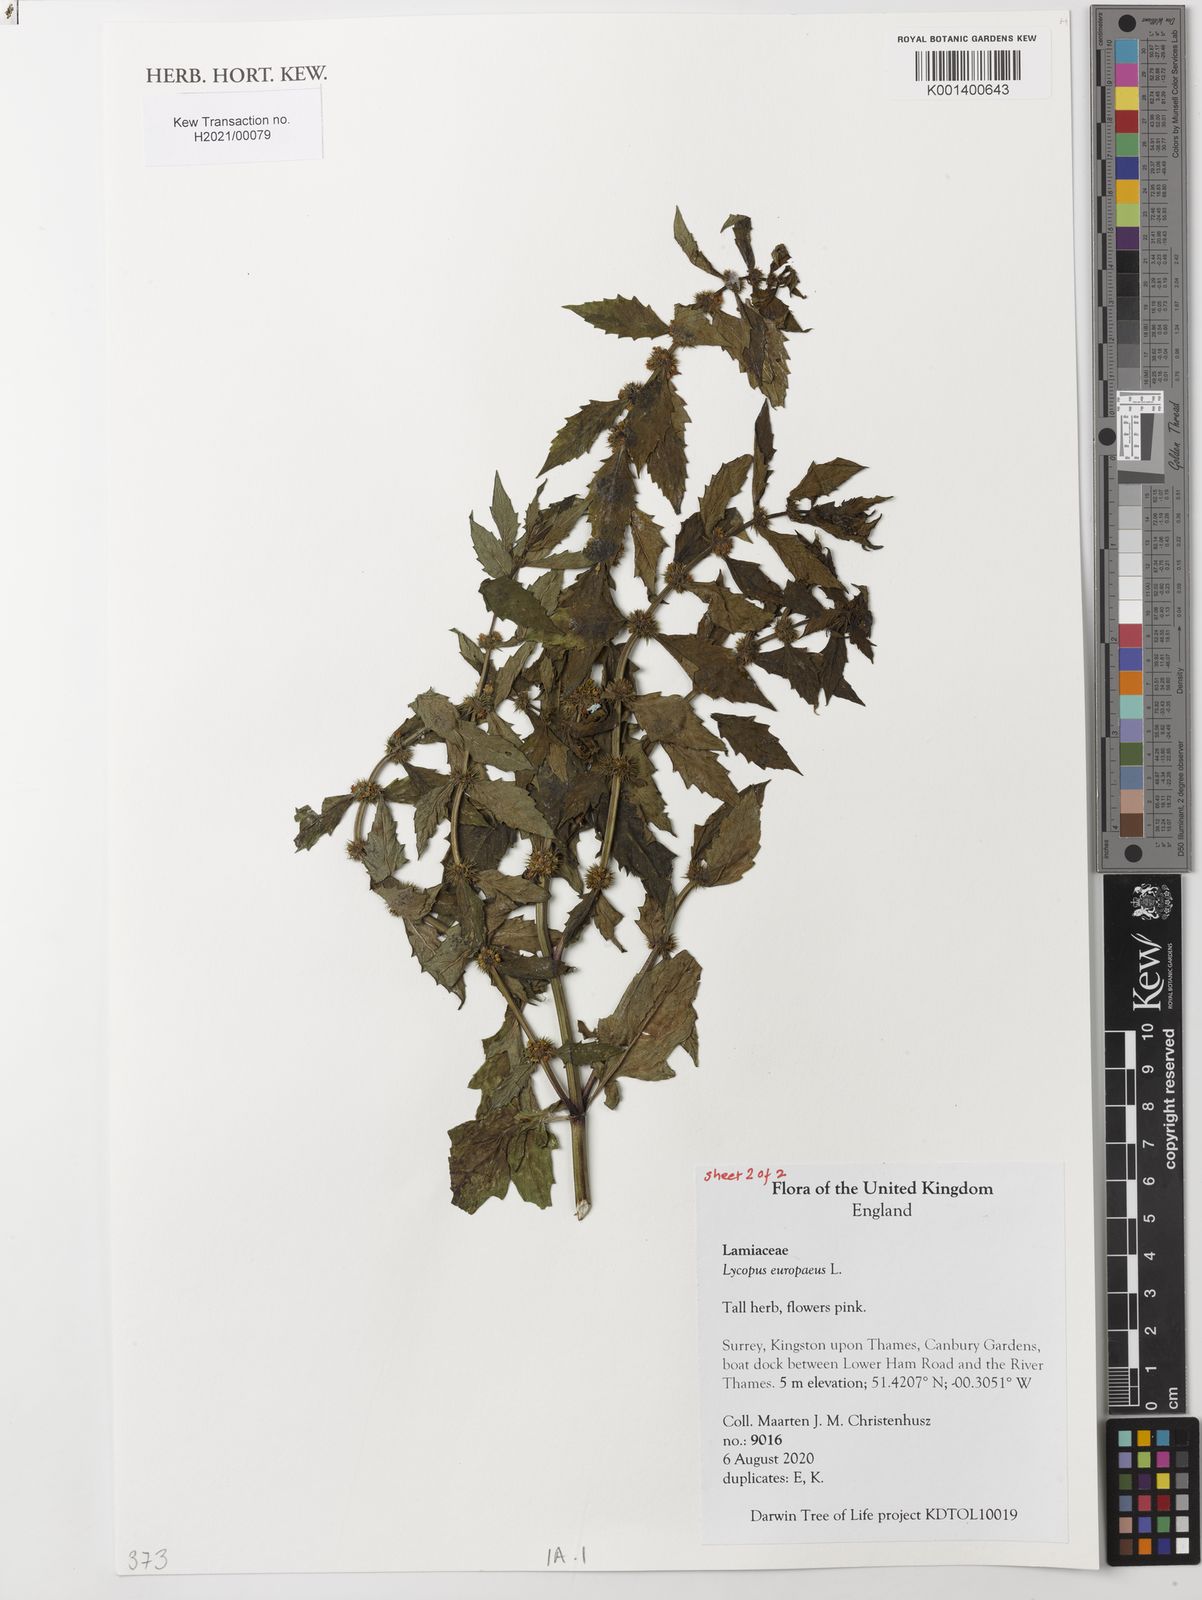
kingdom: Plantae
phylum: Tracheophyta
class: Magnoliopsida
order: Lamiales
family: Lamiaceae
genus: Lycopus
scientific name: Lycopus europaeus
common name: European bugleweed
